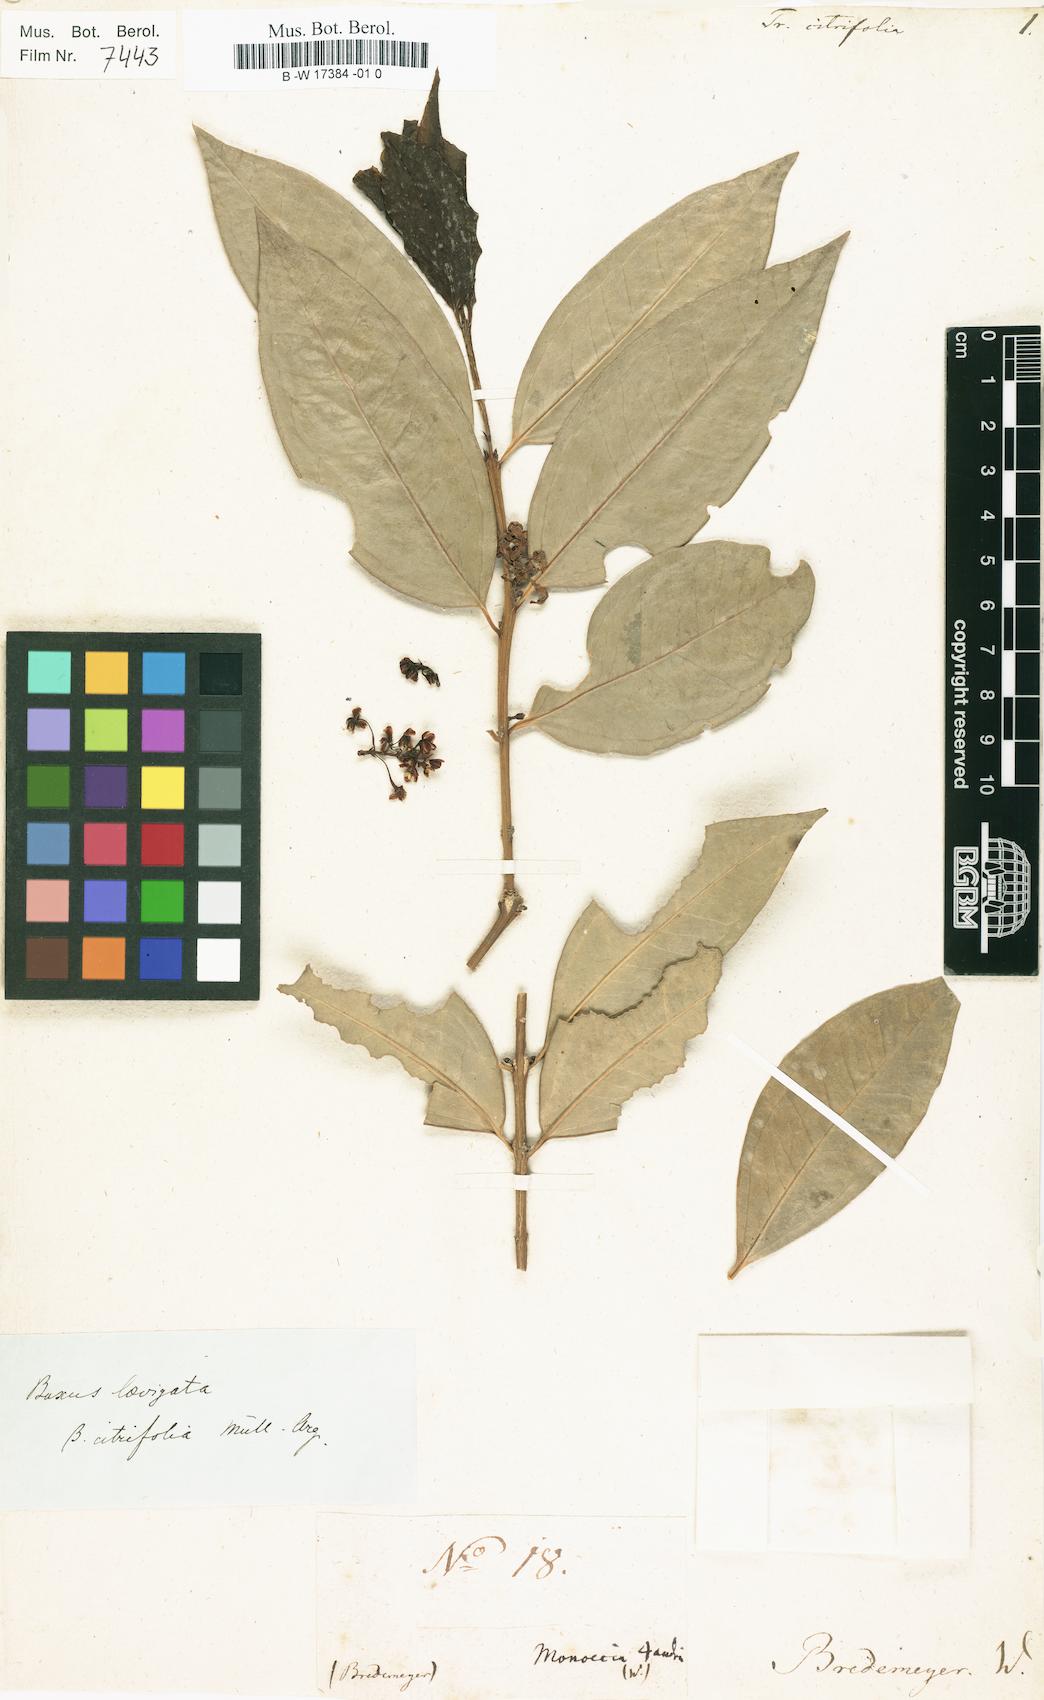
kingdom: Plantae
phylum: Tracheophyta
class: Magnoliopsida
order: Buxales
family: Buxaceae
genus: Buxus
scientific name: Buxus citrifolia
